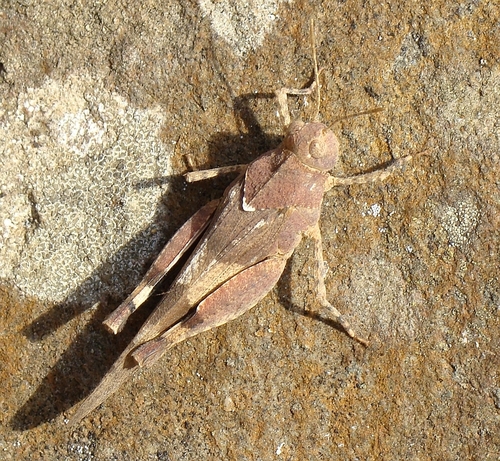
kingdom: Animalia
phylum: Arthropoda
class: Insecta
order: Orthoptera
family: Acrididae
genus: Oedipoda
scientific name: Oedipoda caerulescens
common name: Blue-winged grasshopper
